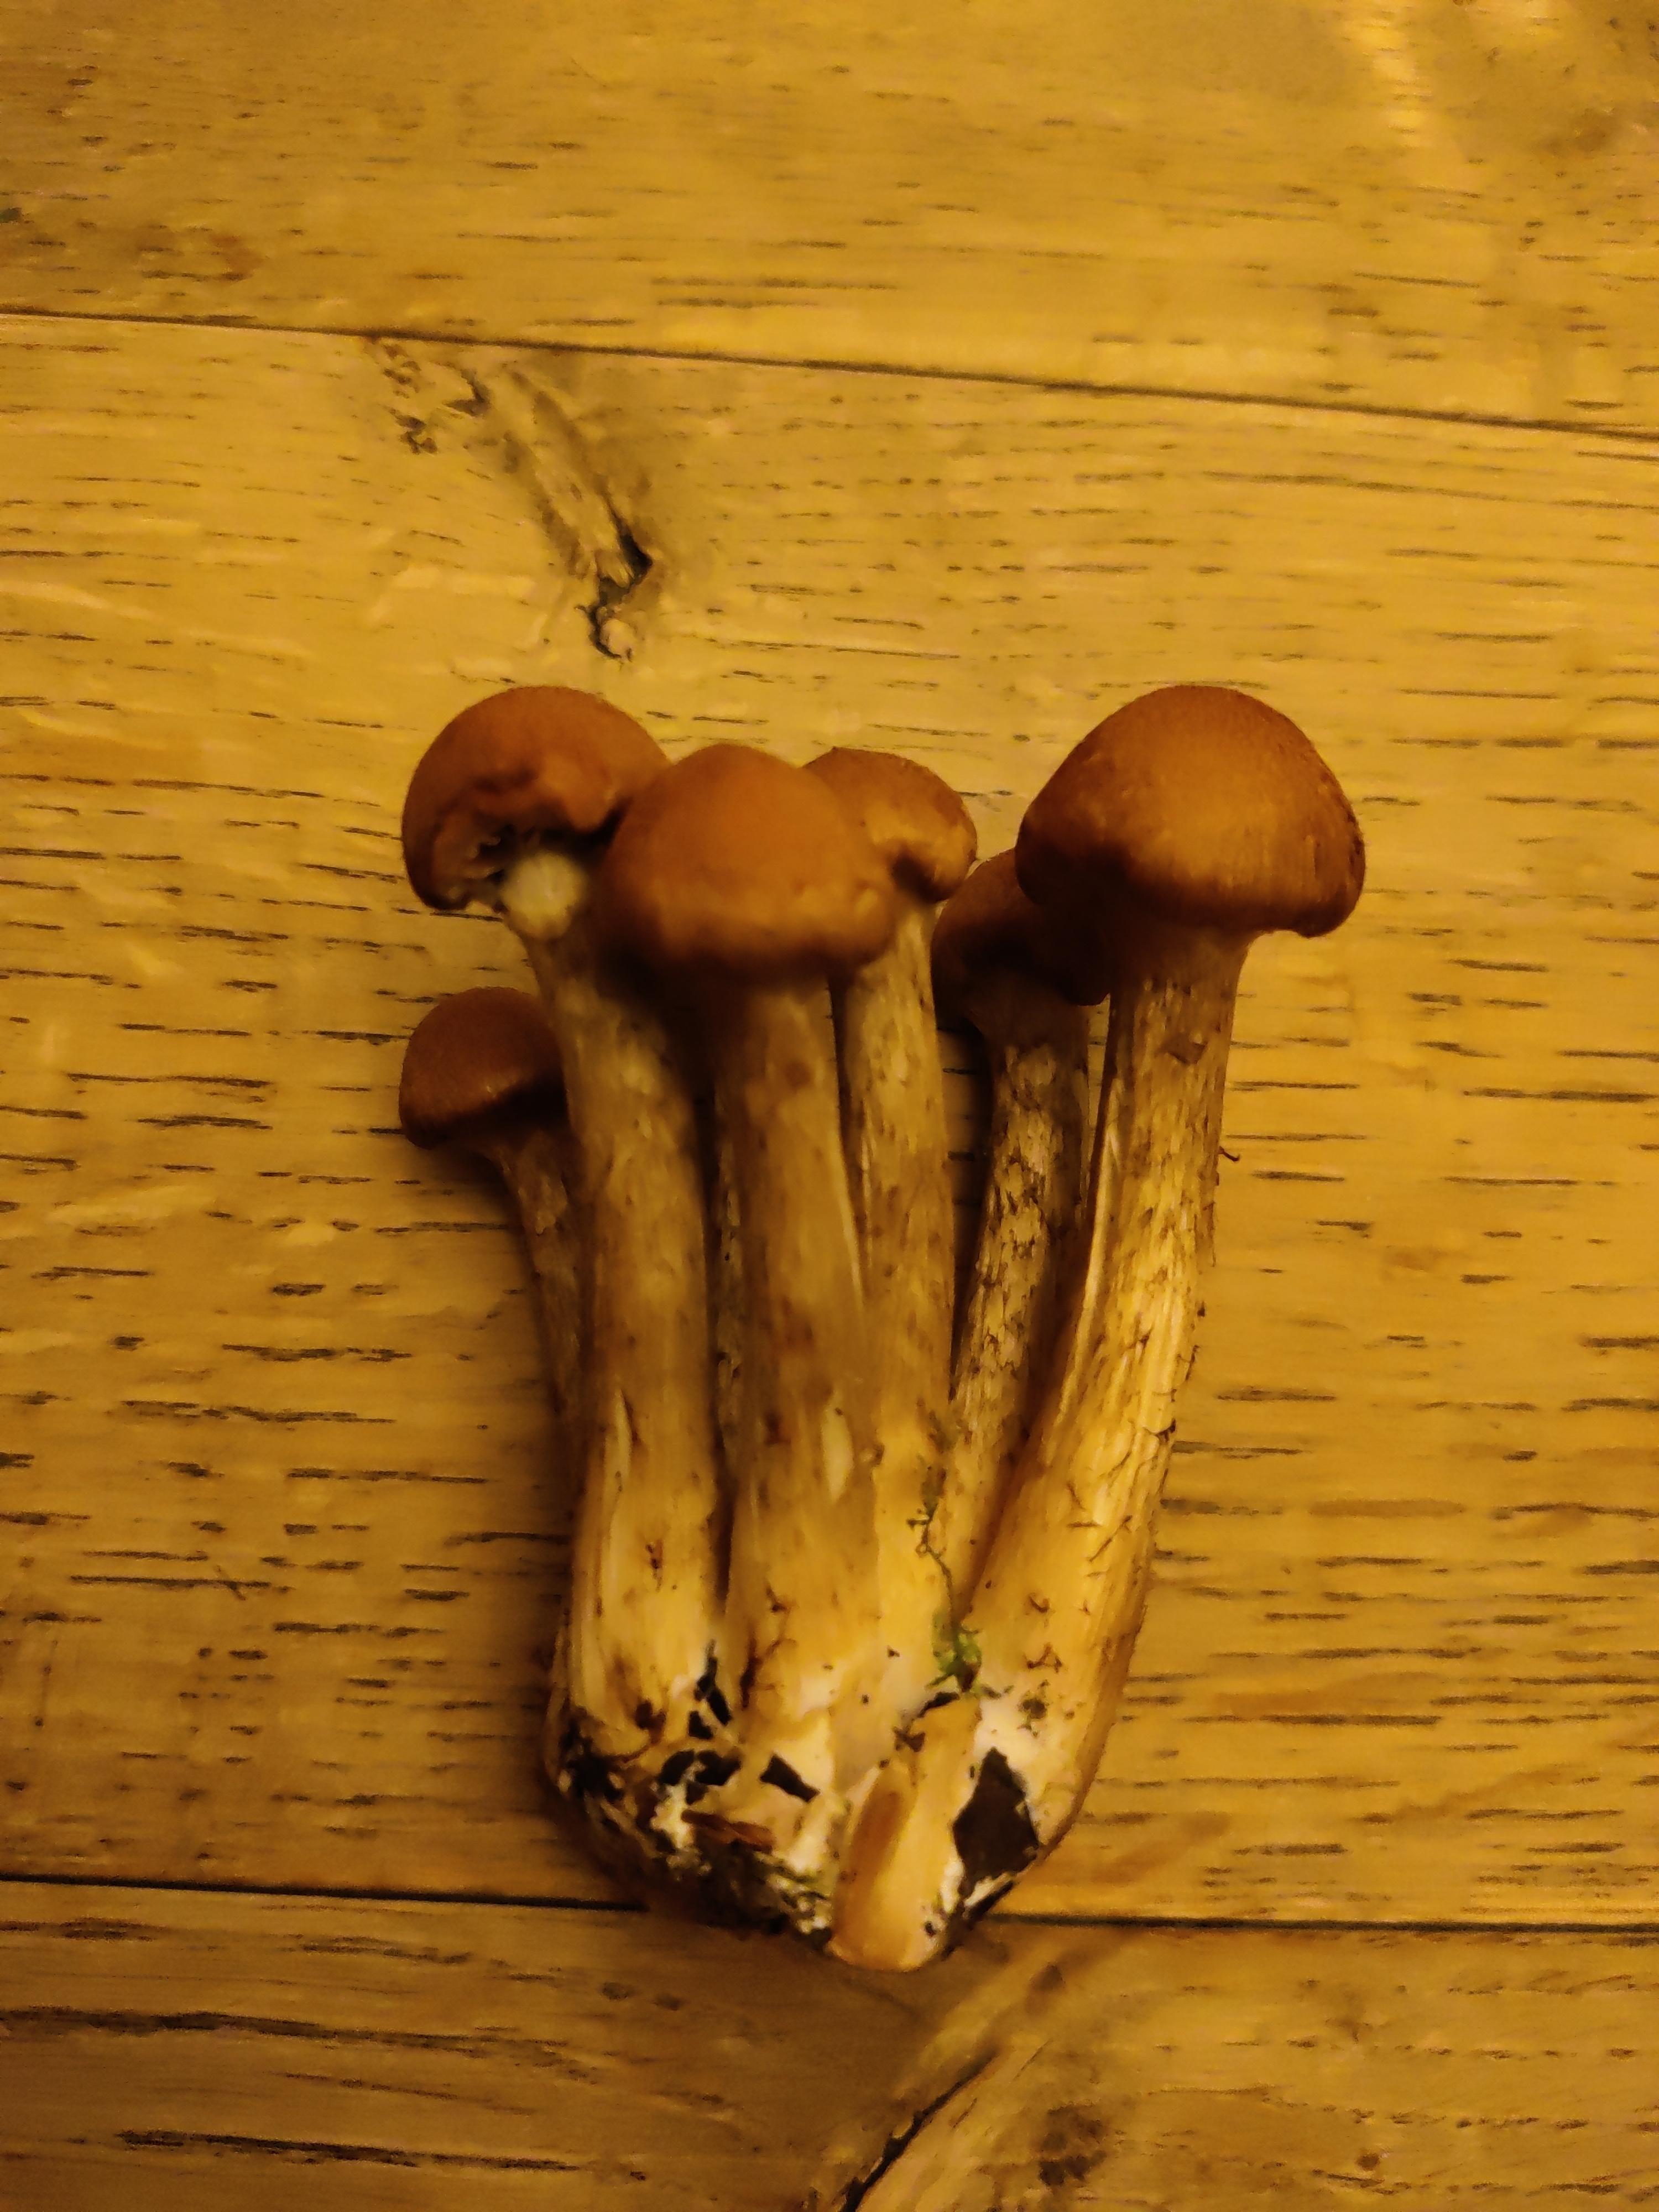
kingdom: Fungi
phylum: Basidiomycota
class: Agaricomycetes
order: Agaricales
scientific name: Agaricales
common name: champignonordenen
